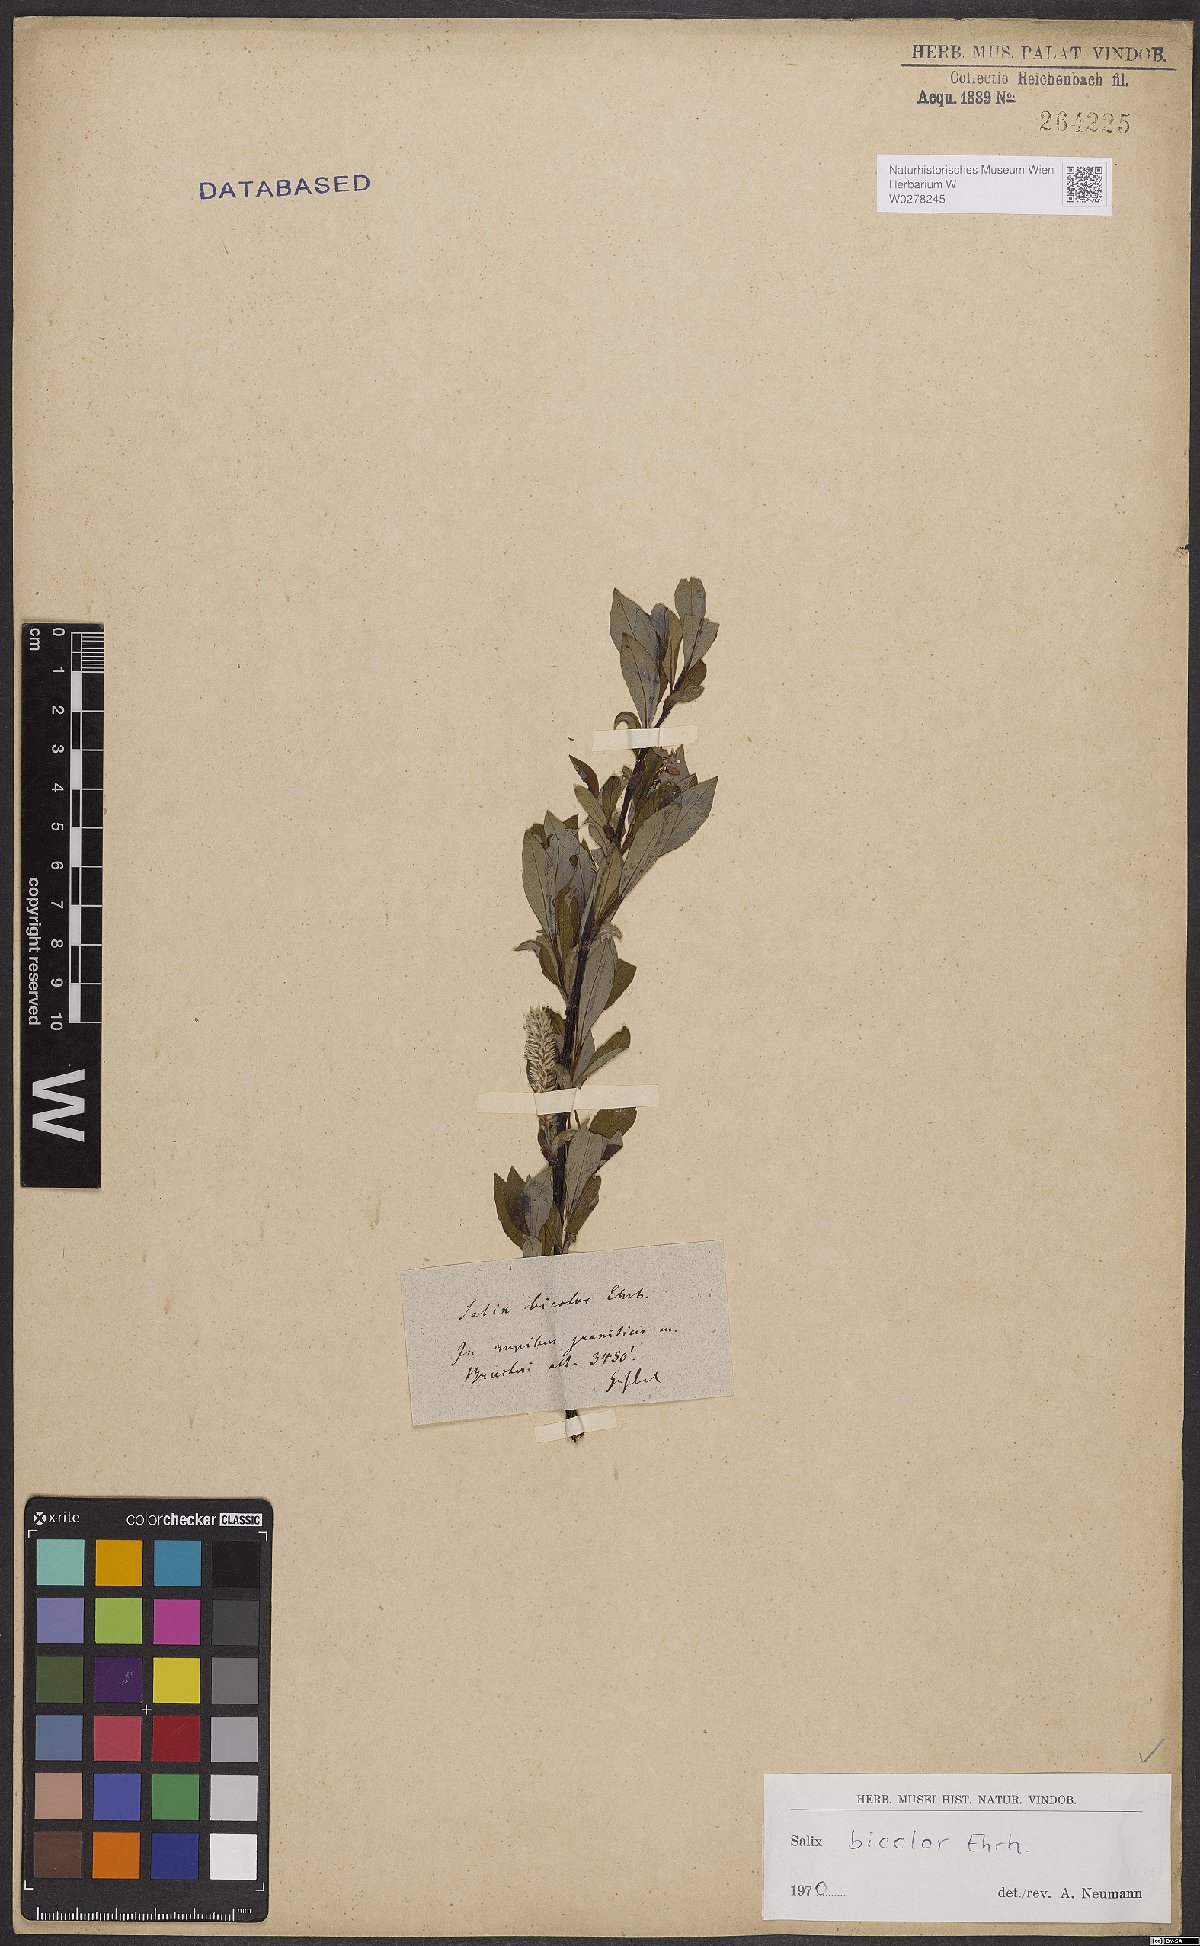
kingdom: Plantae
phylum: Tracheophyta
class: Magnoliopsida
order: Malpighiales
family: Salicaceae
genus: Salix
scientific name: Salix bicolor
